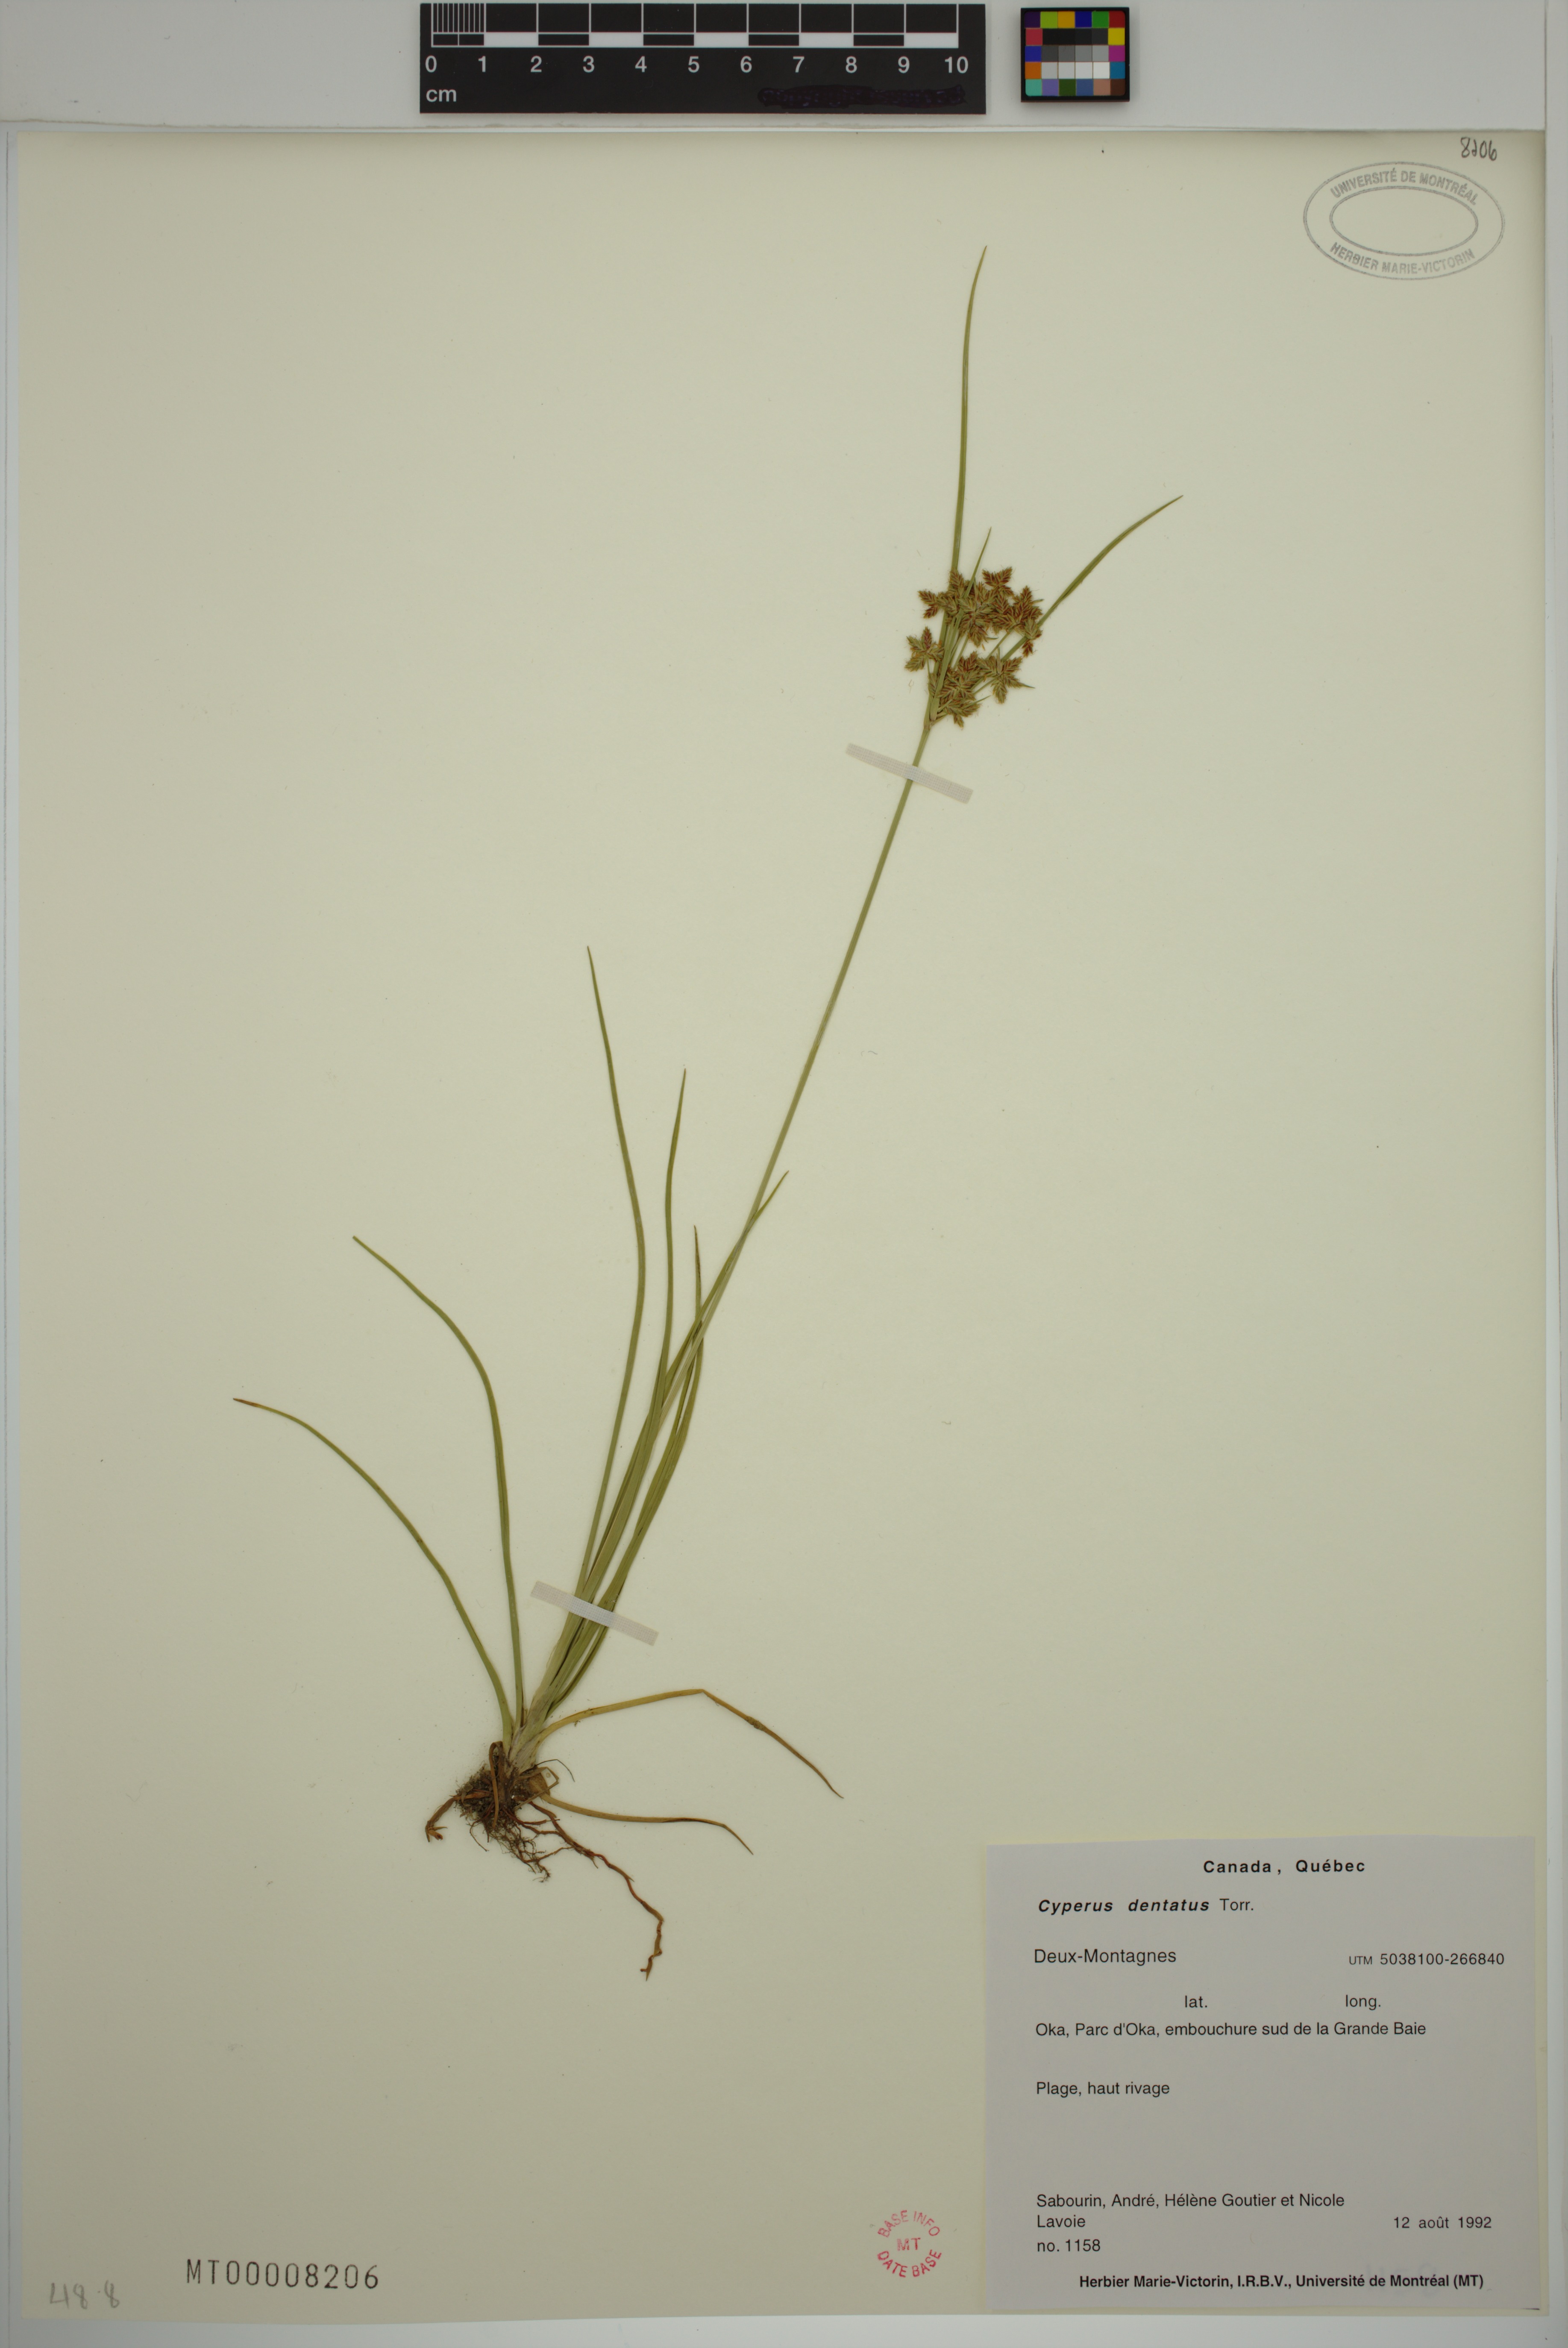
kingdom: Plantae
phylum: Tracheophyta
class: Liliopsida
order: Poales
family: Cyperaceae
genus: Cyperus
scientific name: Cyperus dentatus
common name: Dentate umbrella sedge
